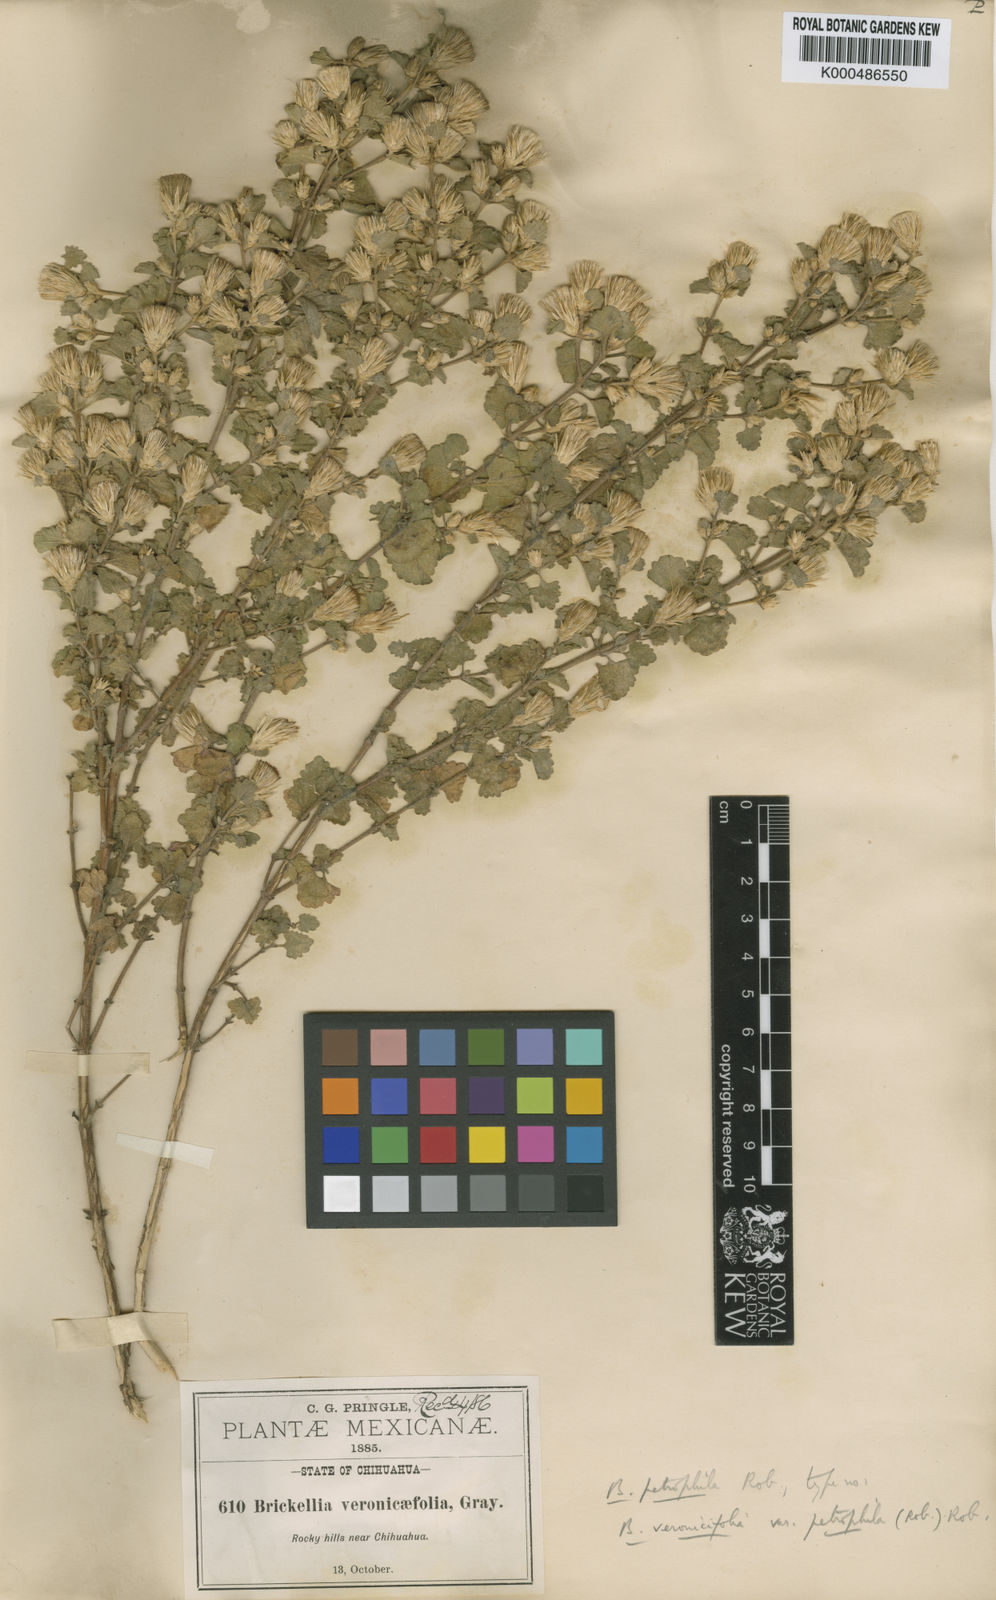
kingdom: Plantae
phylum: Tracheophyta
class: Magnoliopsida
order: Asterales
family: Asteraceae
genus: Brickellia
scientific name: Brickellia veronicifolia
